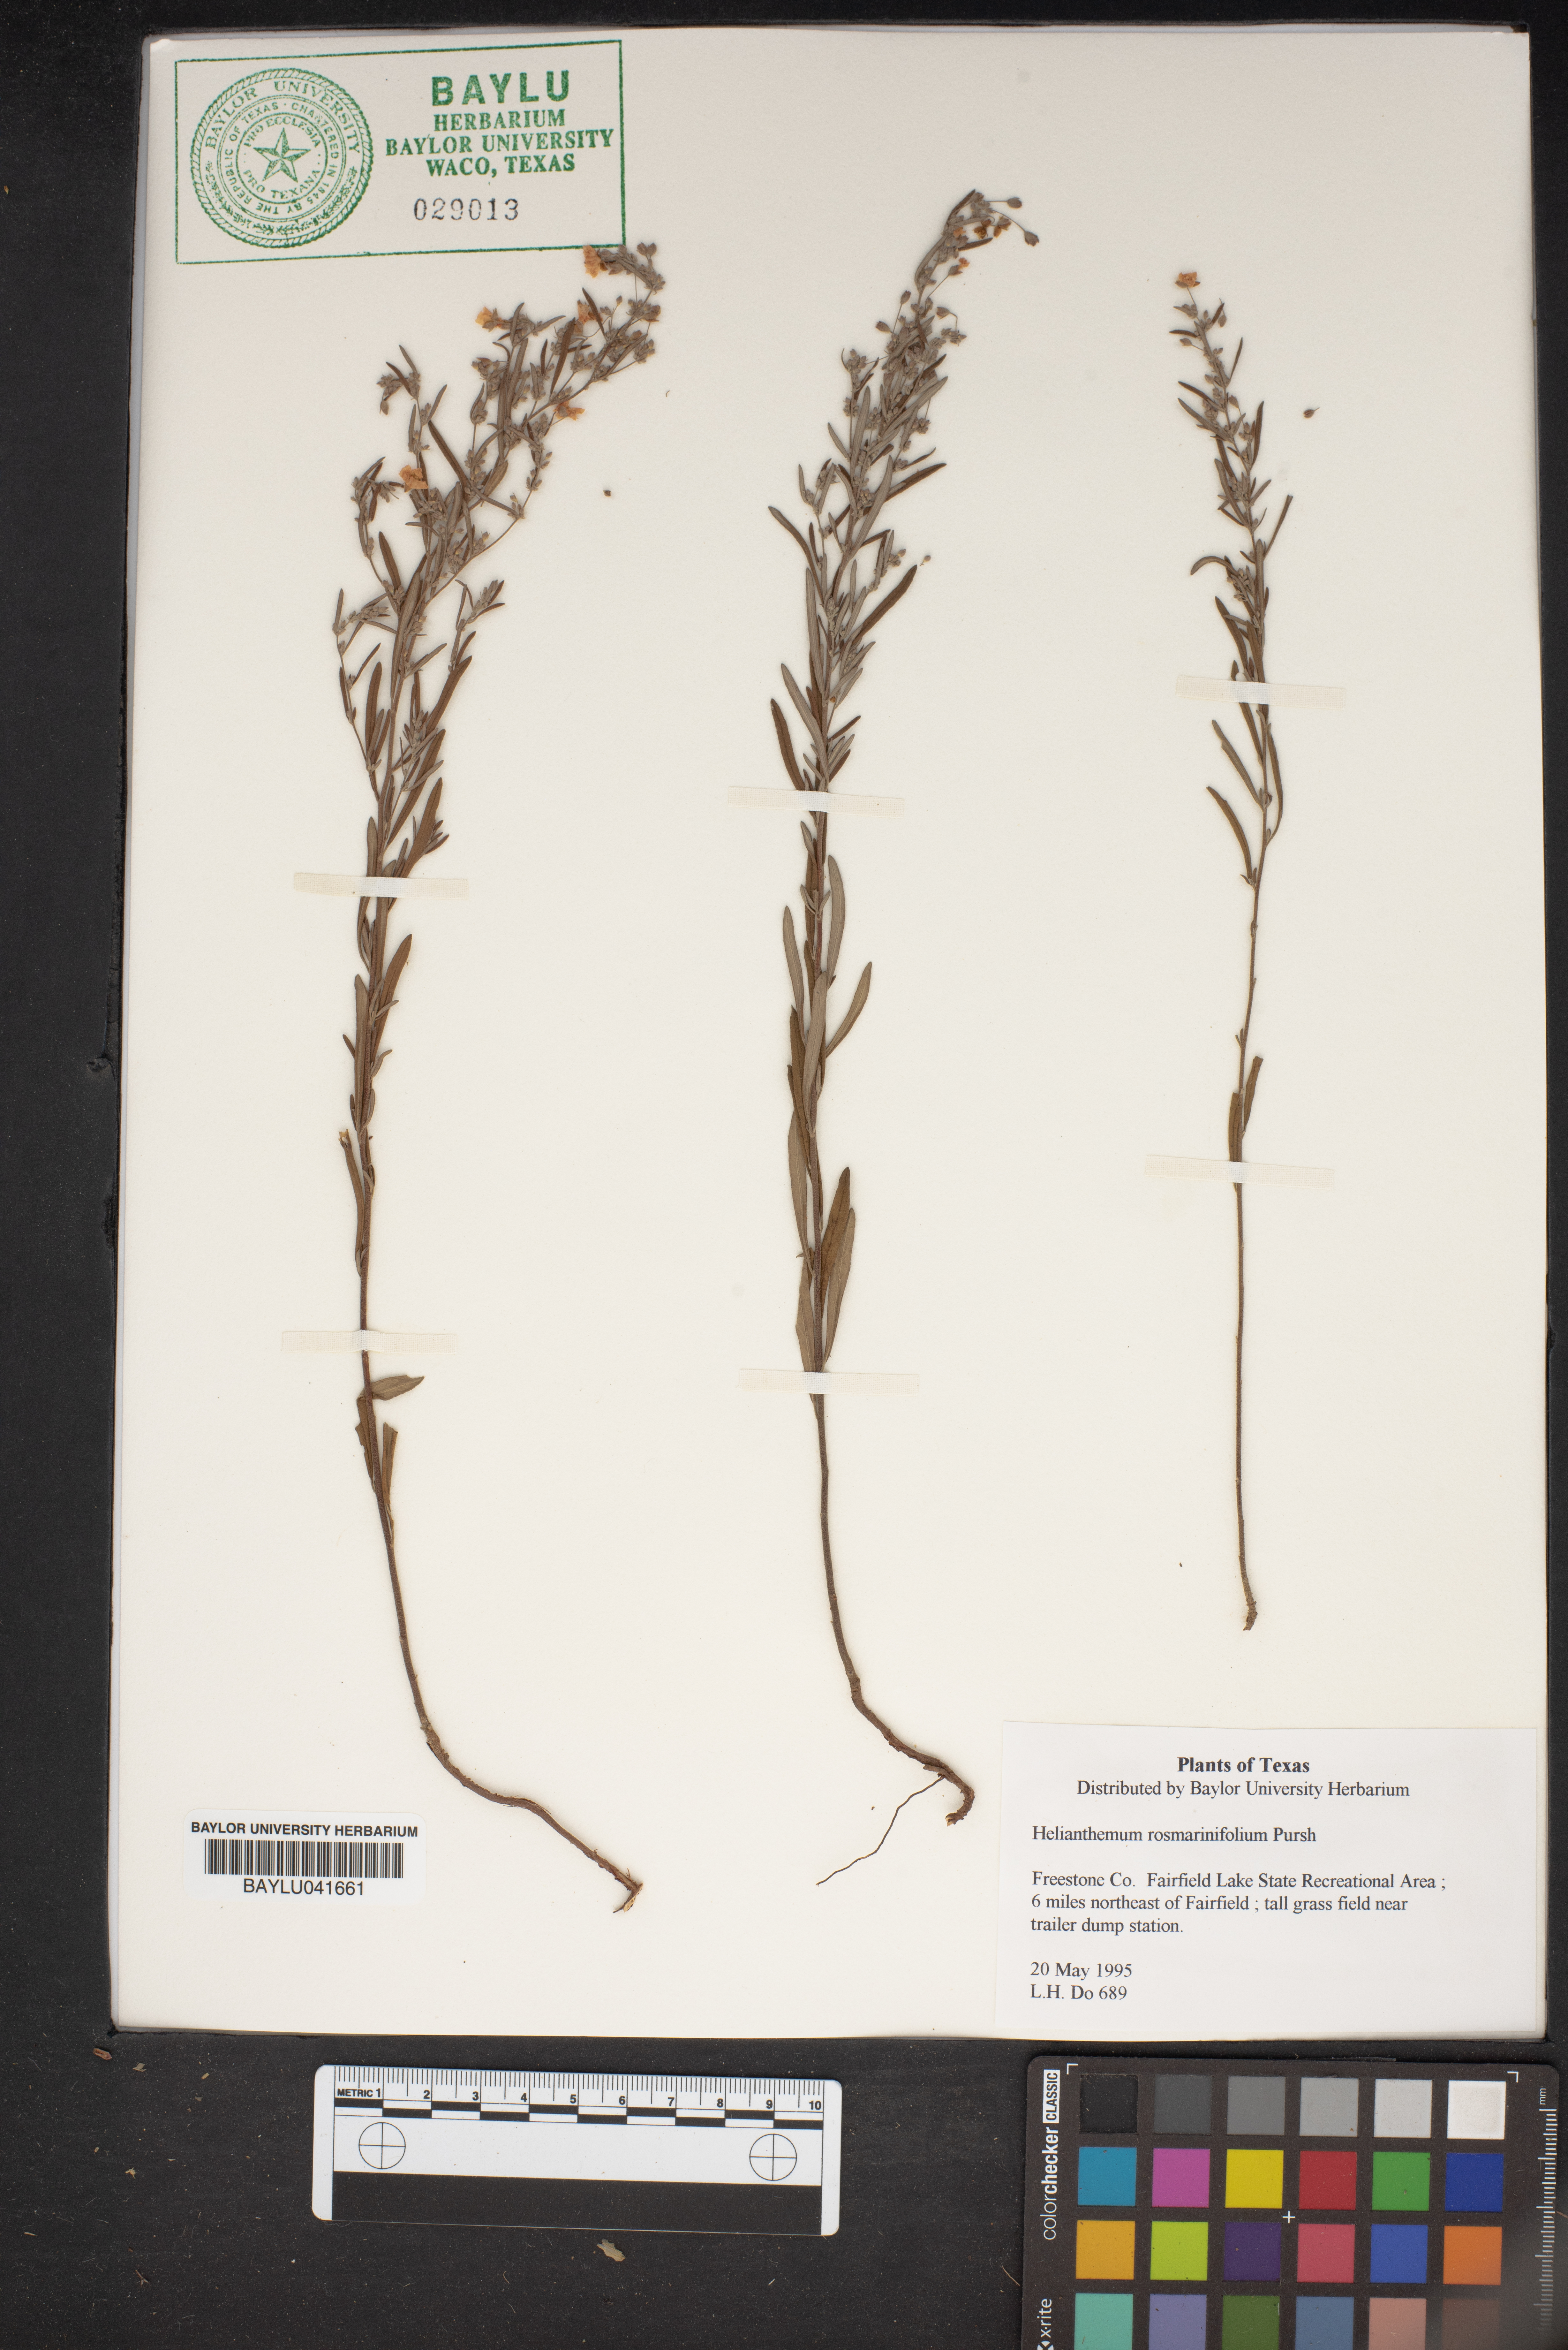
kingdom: Plantae
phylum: Tracheophyta
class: Magnoliopsida
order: Malvales
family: Cistaceae
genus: Crocanthemum
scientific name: Crocanthemum rosmarinifolium
